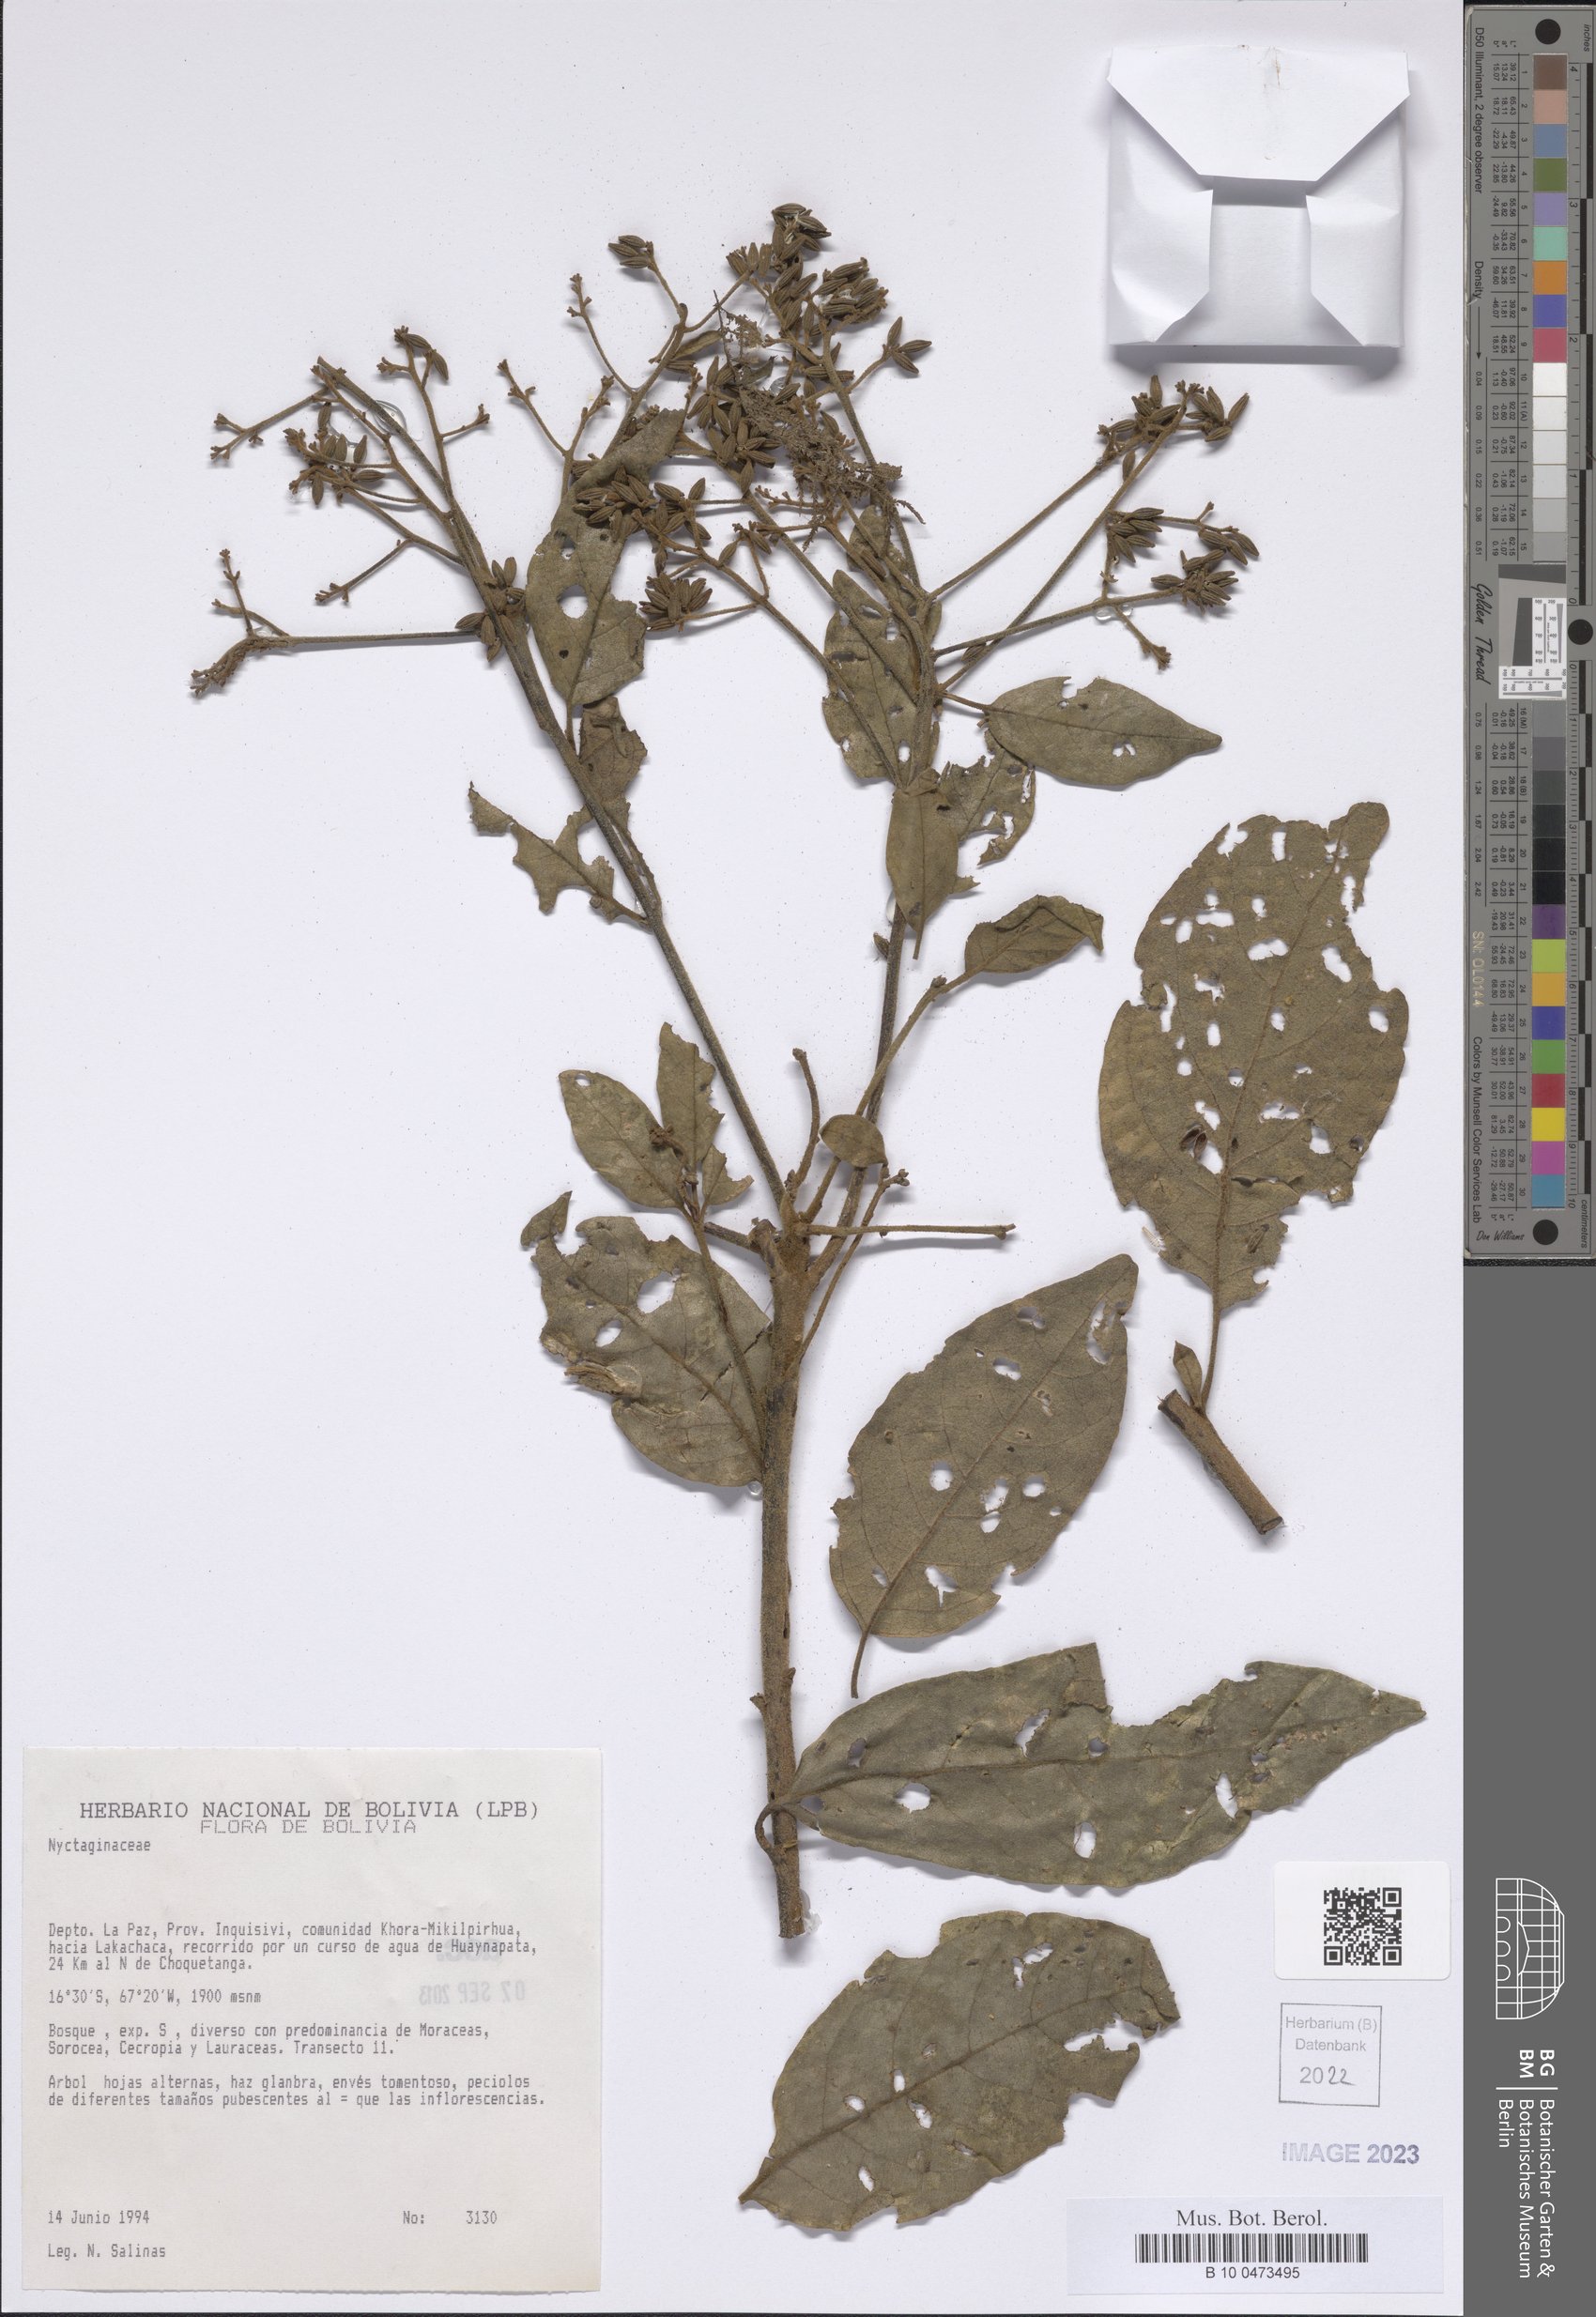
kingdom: Plantae
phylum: Tracheophyta
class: Magnoliopsida
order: Boraginales
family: Cordiaceae
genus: Cordia
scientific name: Cordia
